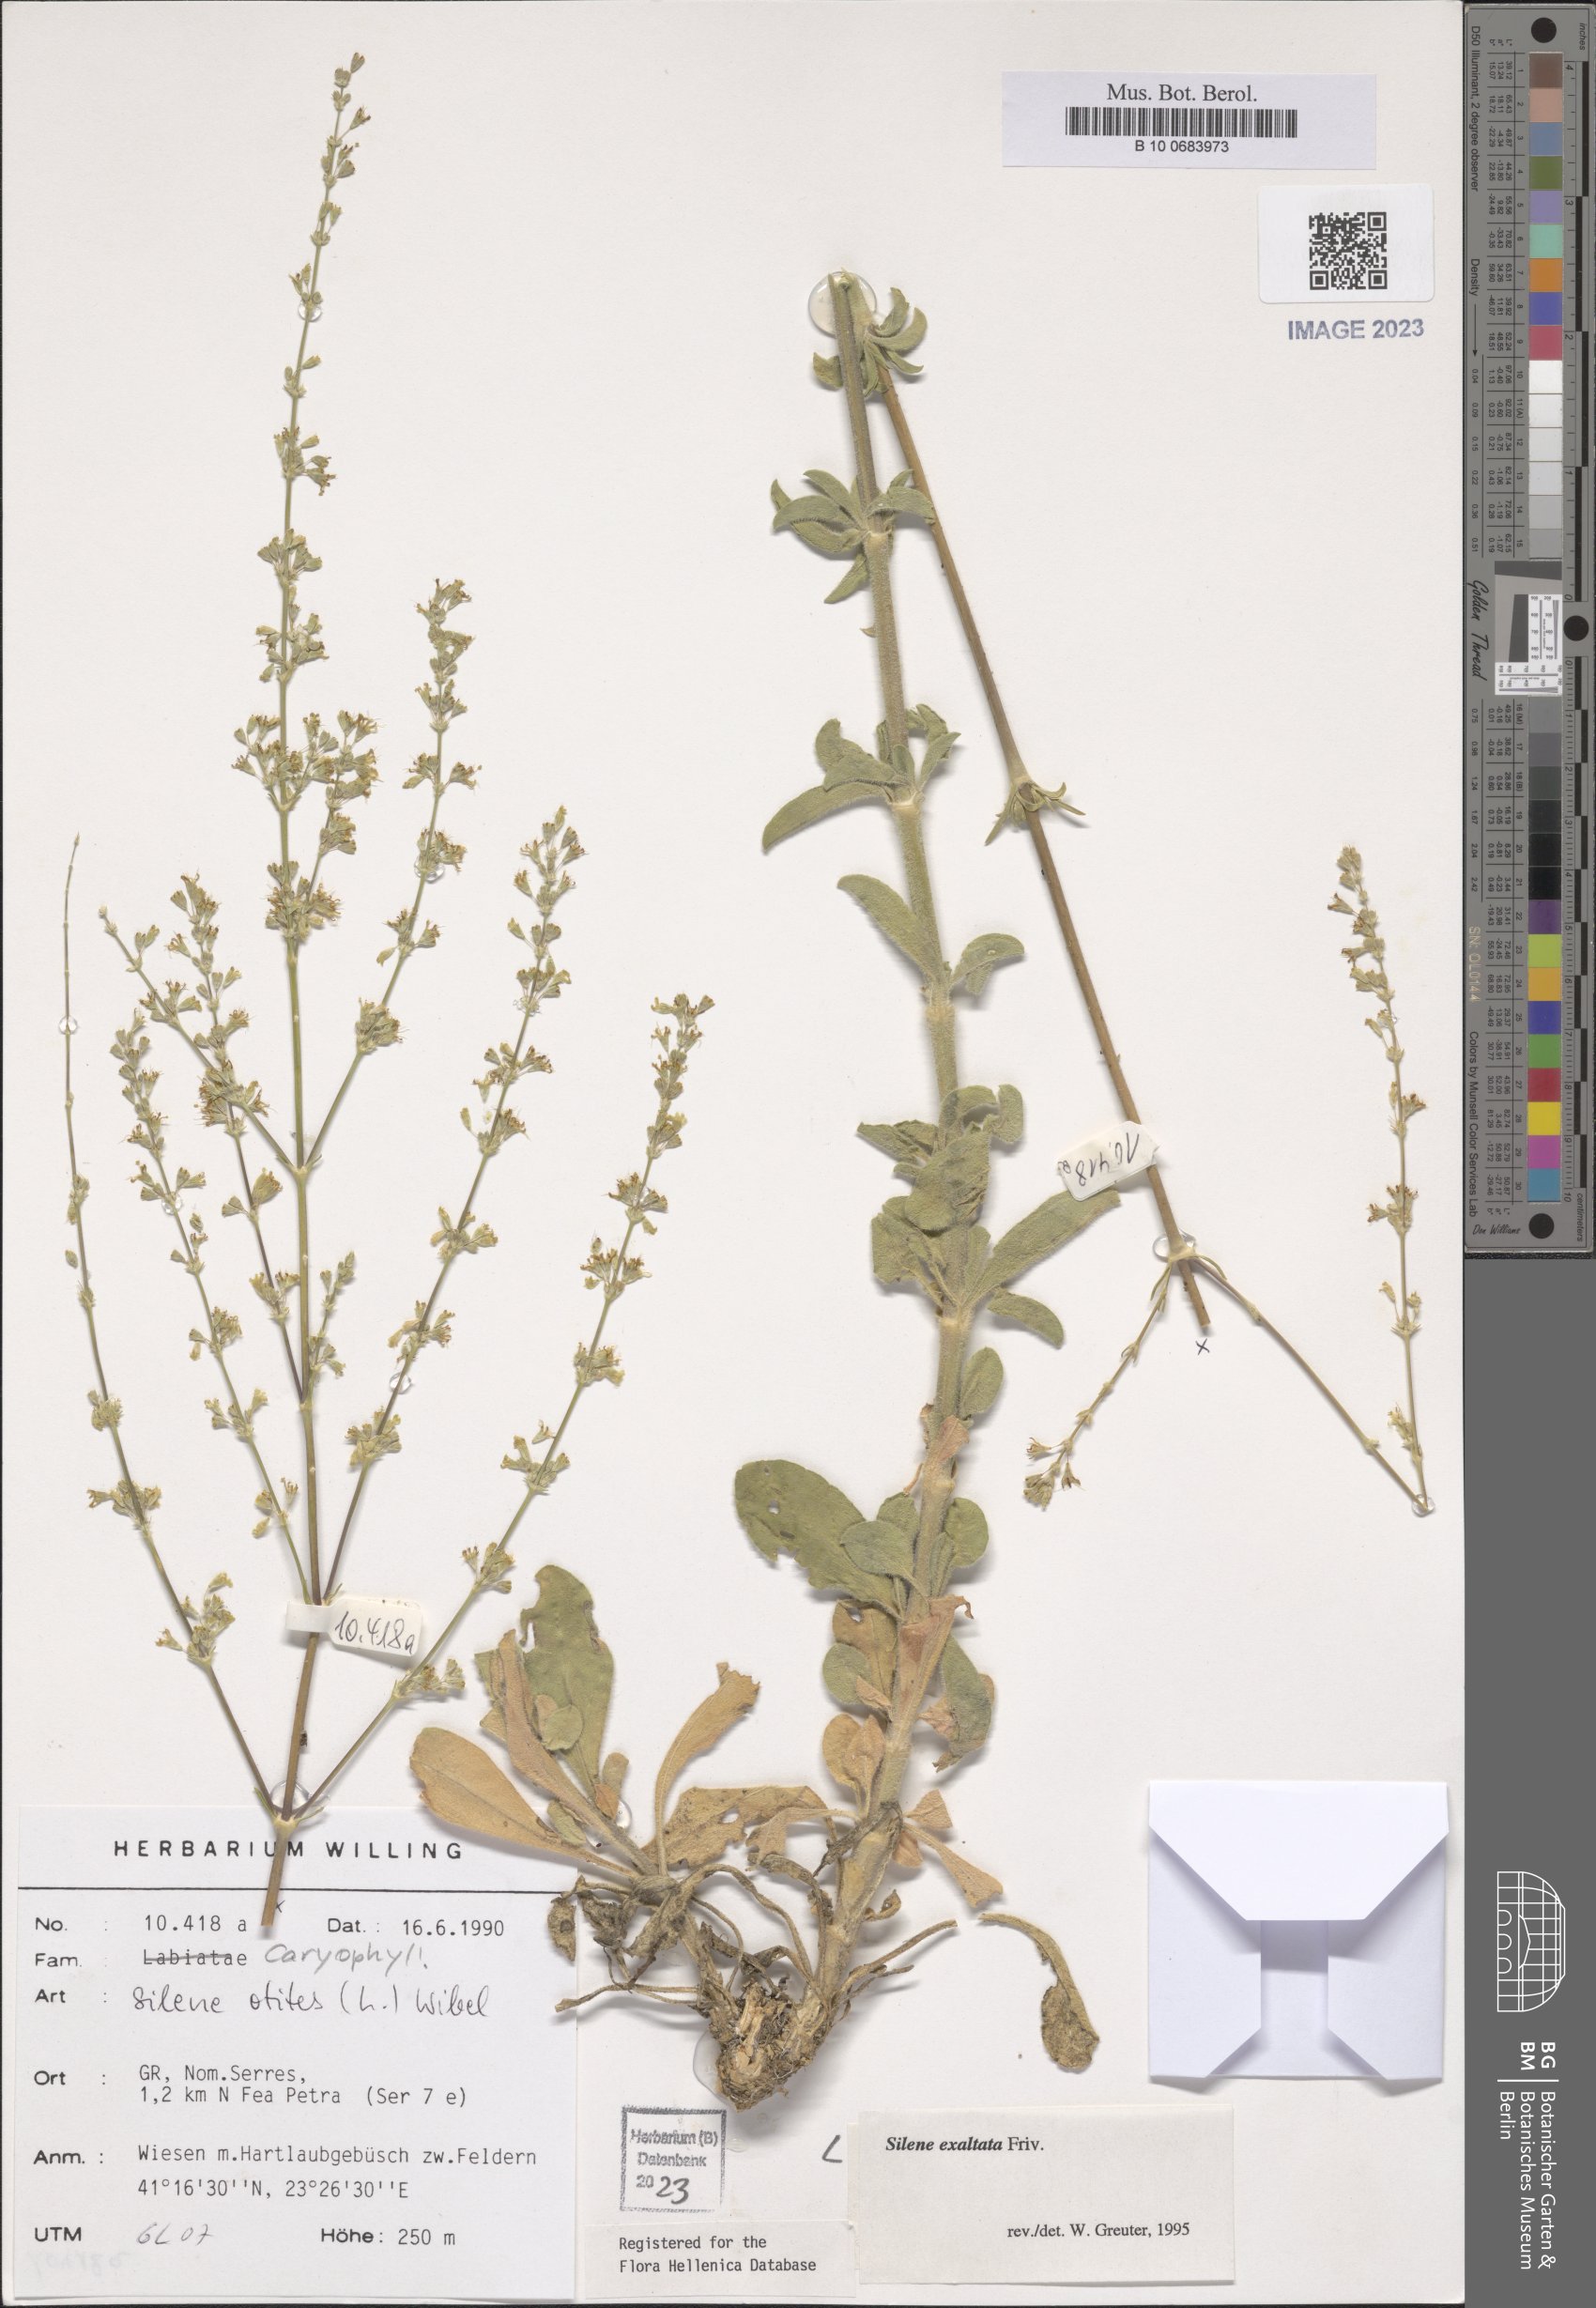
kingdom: Plantae
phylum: Tracheophyta
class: Magnoliopsida
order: Caryophyllales
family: Caryophyllaceae
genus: Silene
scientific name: Silene densiflora
